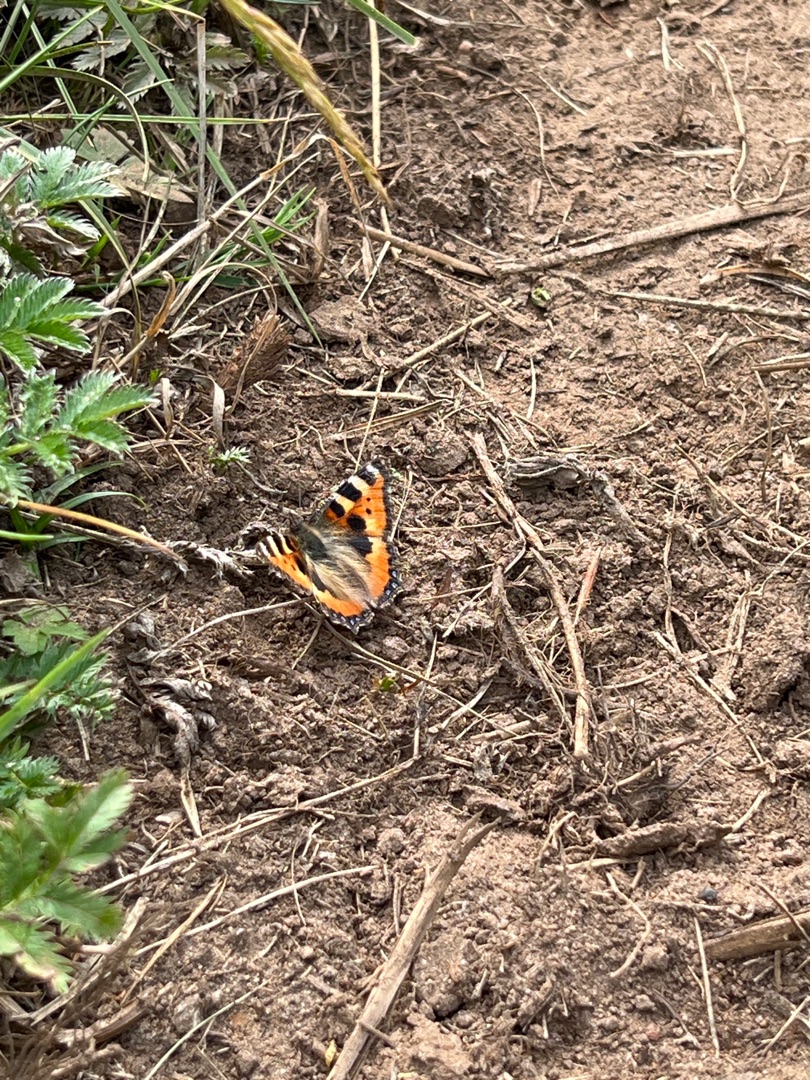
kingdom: Animalia
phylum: Arthropoda
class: Insecta
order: Lepidoptera
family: Nymphalidae
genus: Aglais
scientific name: Aglais urticae
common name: Nældens takvinge
